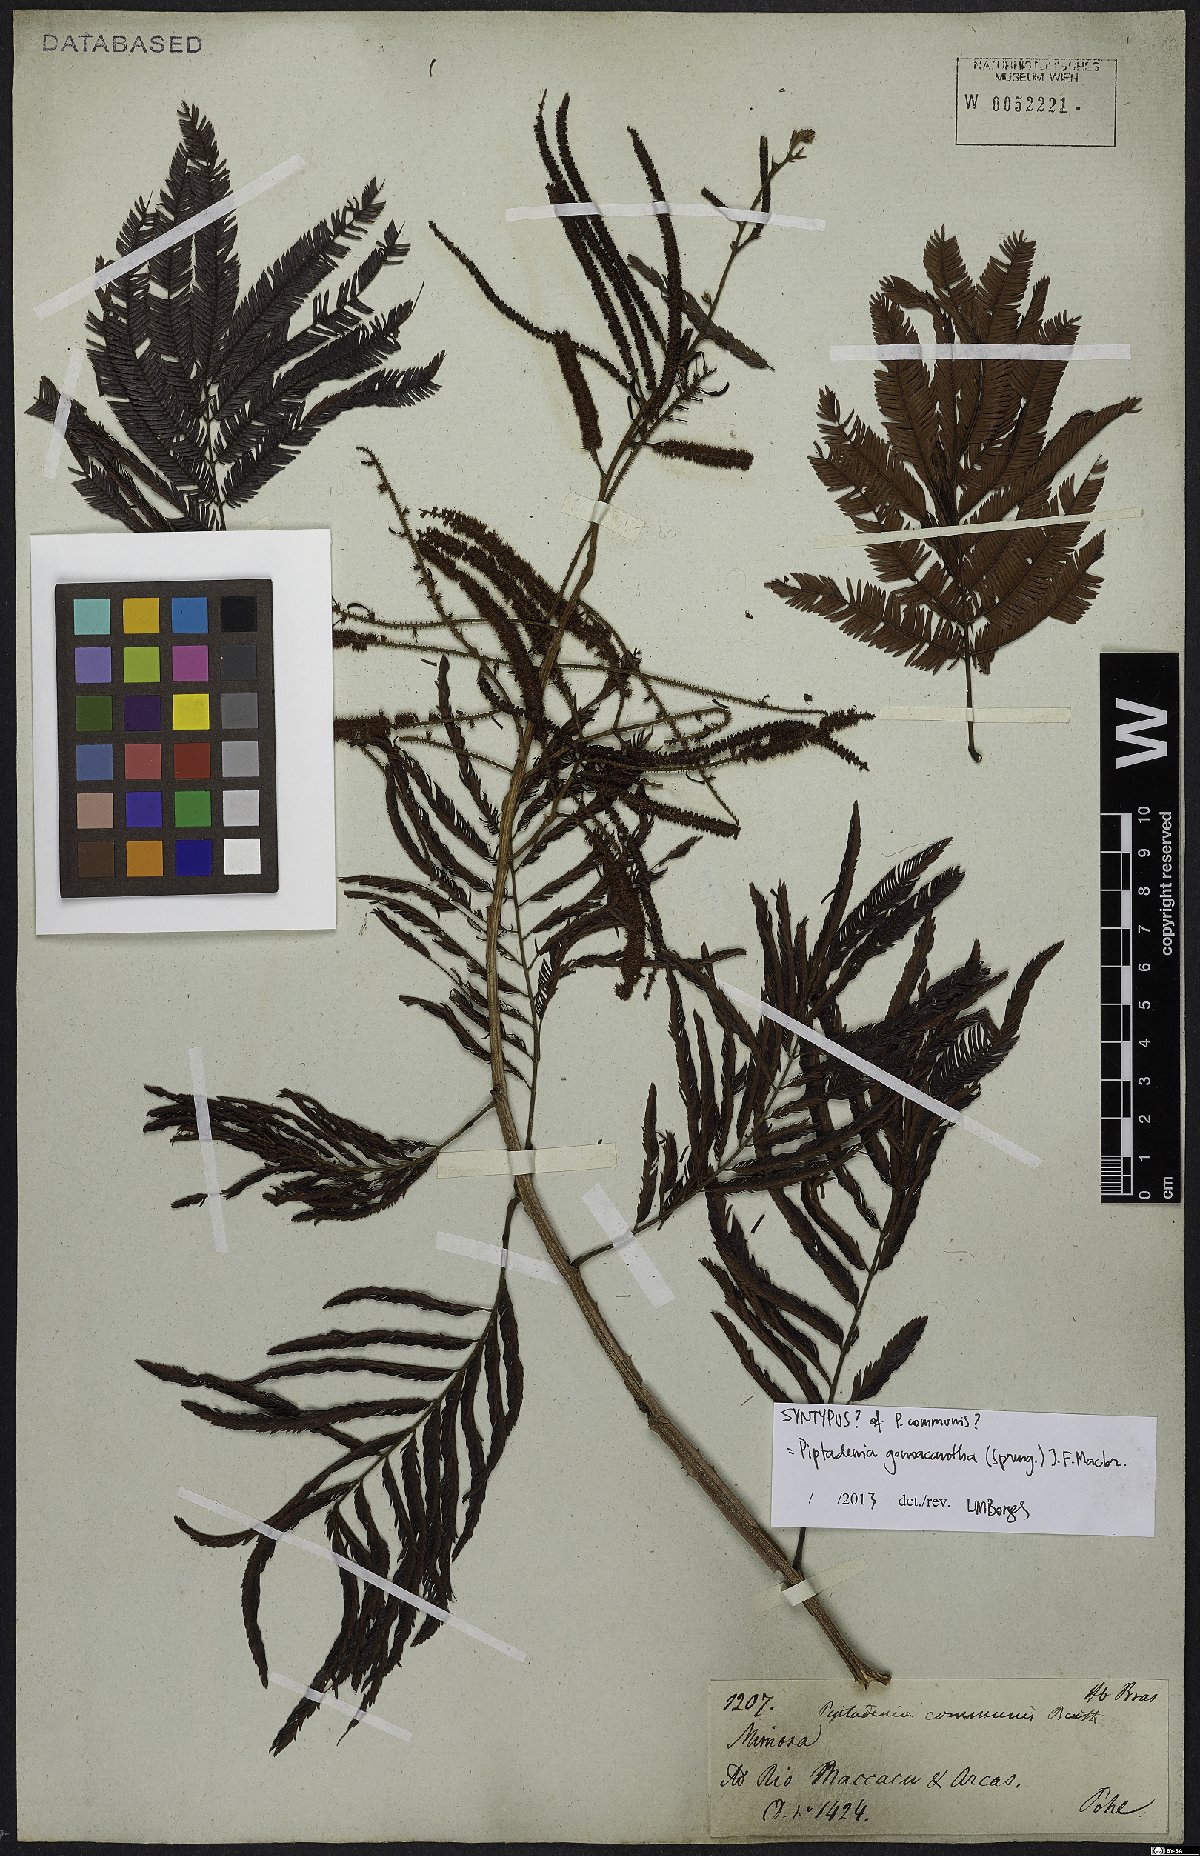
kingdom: Plantae
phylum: Tracheophyta
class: Magnoliopsida
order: Fabales
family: Fabaceae
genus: Piptadenia
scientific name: Piptadenia gonoacantha
